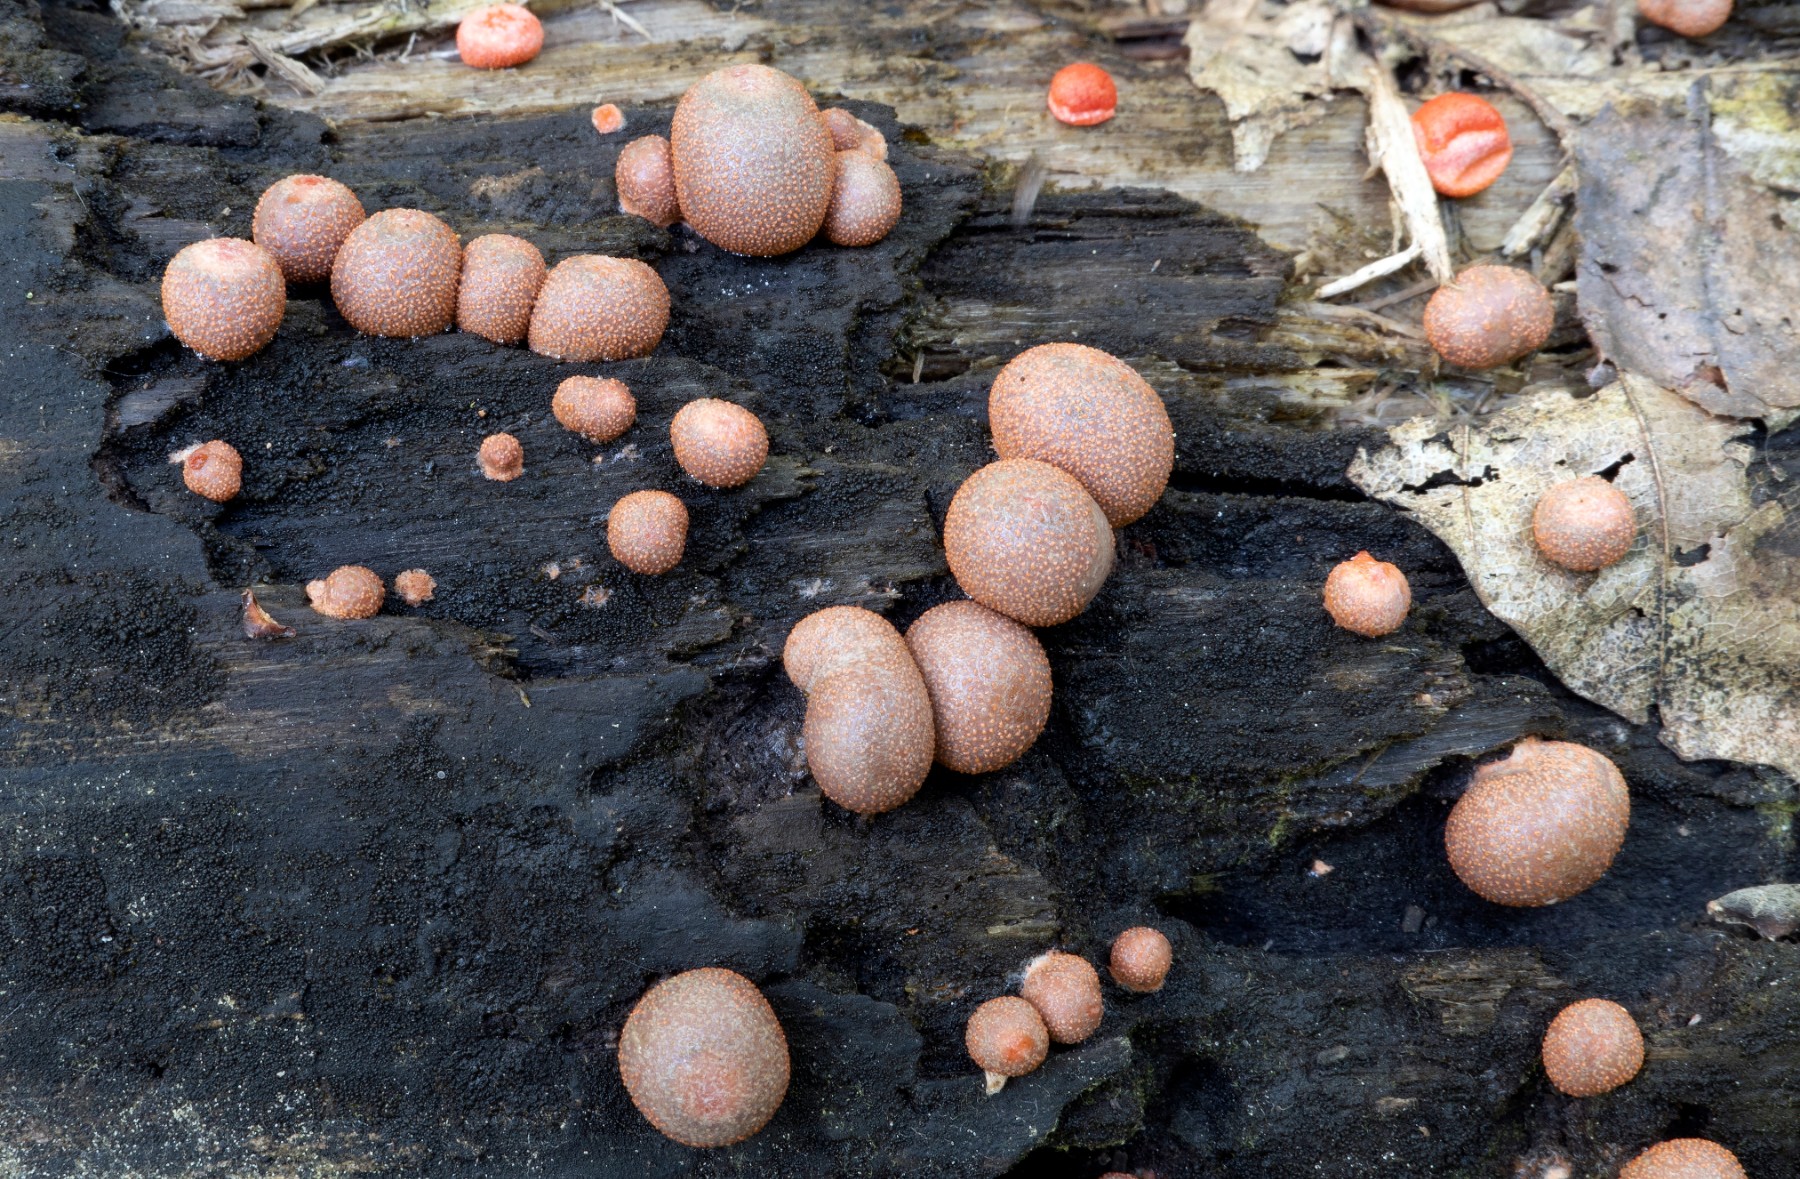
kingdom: Protozoa
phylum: Mycetozoa
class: Myxomycetes
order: Cribrariales
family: Tubiferaceae
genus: Lycogala
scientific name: Lycogala epidendrum
